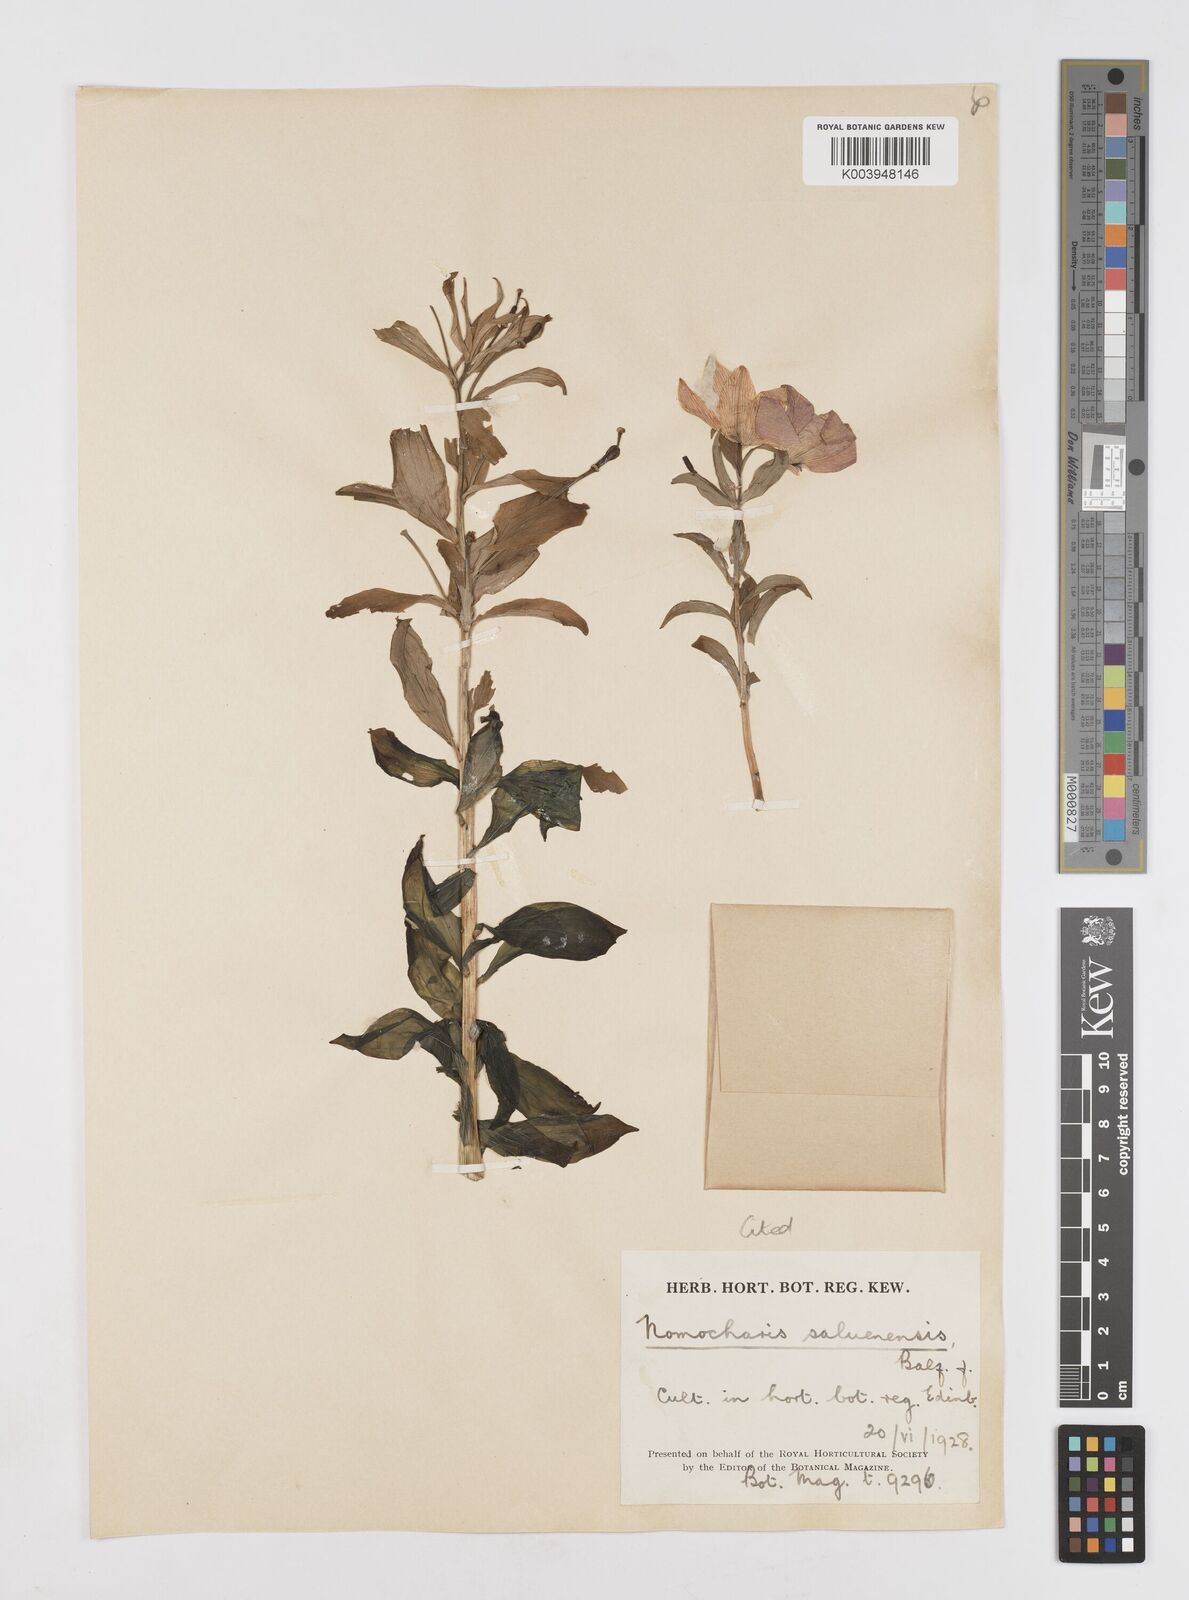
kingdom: Plantae
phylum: Tracheophyta
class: Liliopsida
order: Liliales
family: Liliaceae
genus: Lilium
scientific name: Lilium saluenense
